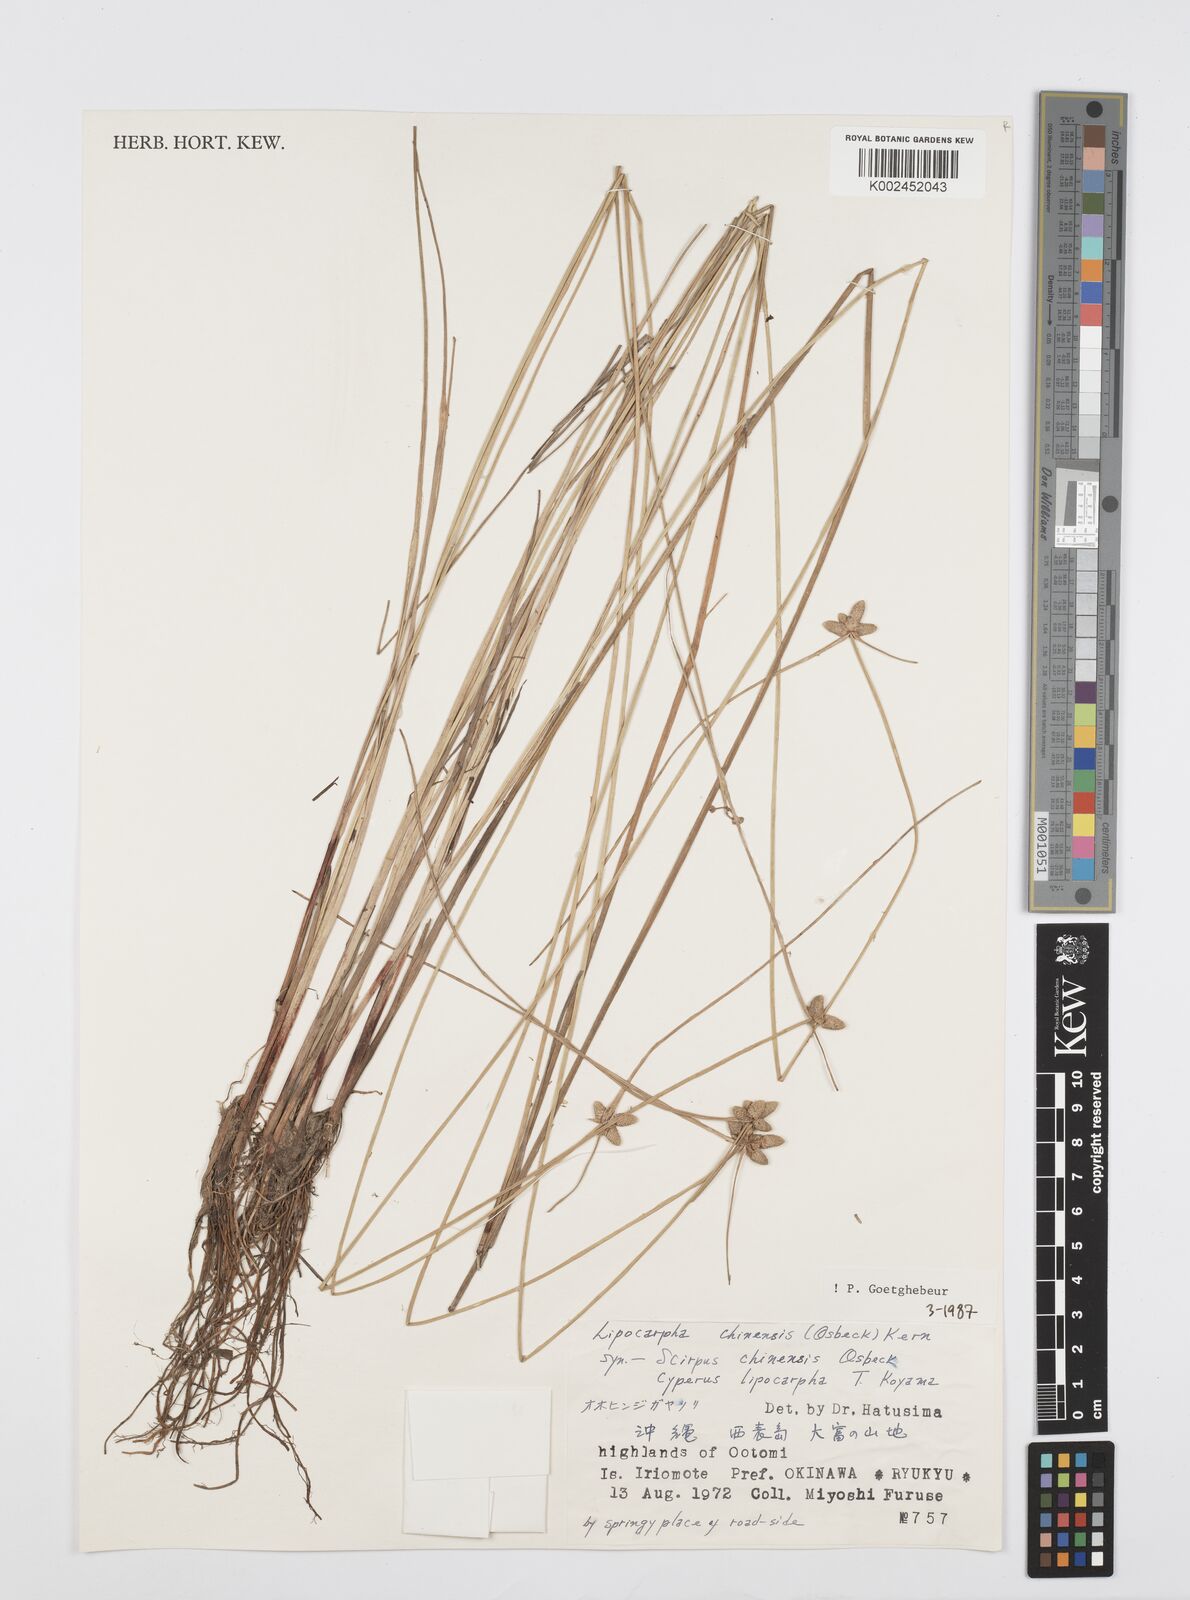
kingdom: Plantae
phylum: Tracheophyta
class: Liliopsida
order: Poales
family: Cyperaceae
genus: Cyperus
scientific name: Cyperus albescens
